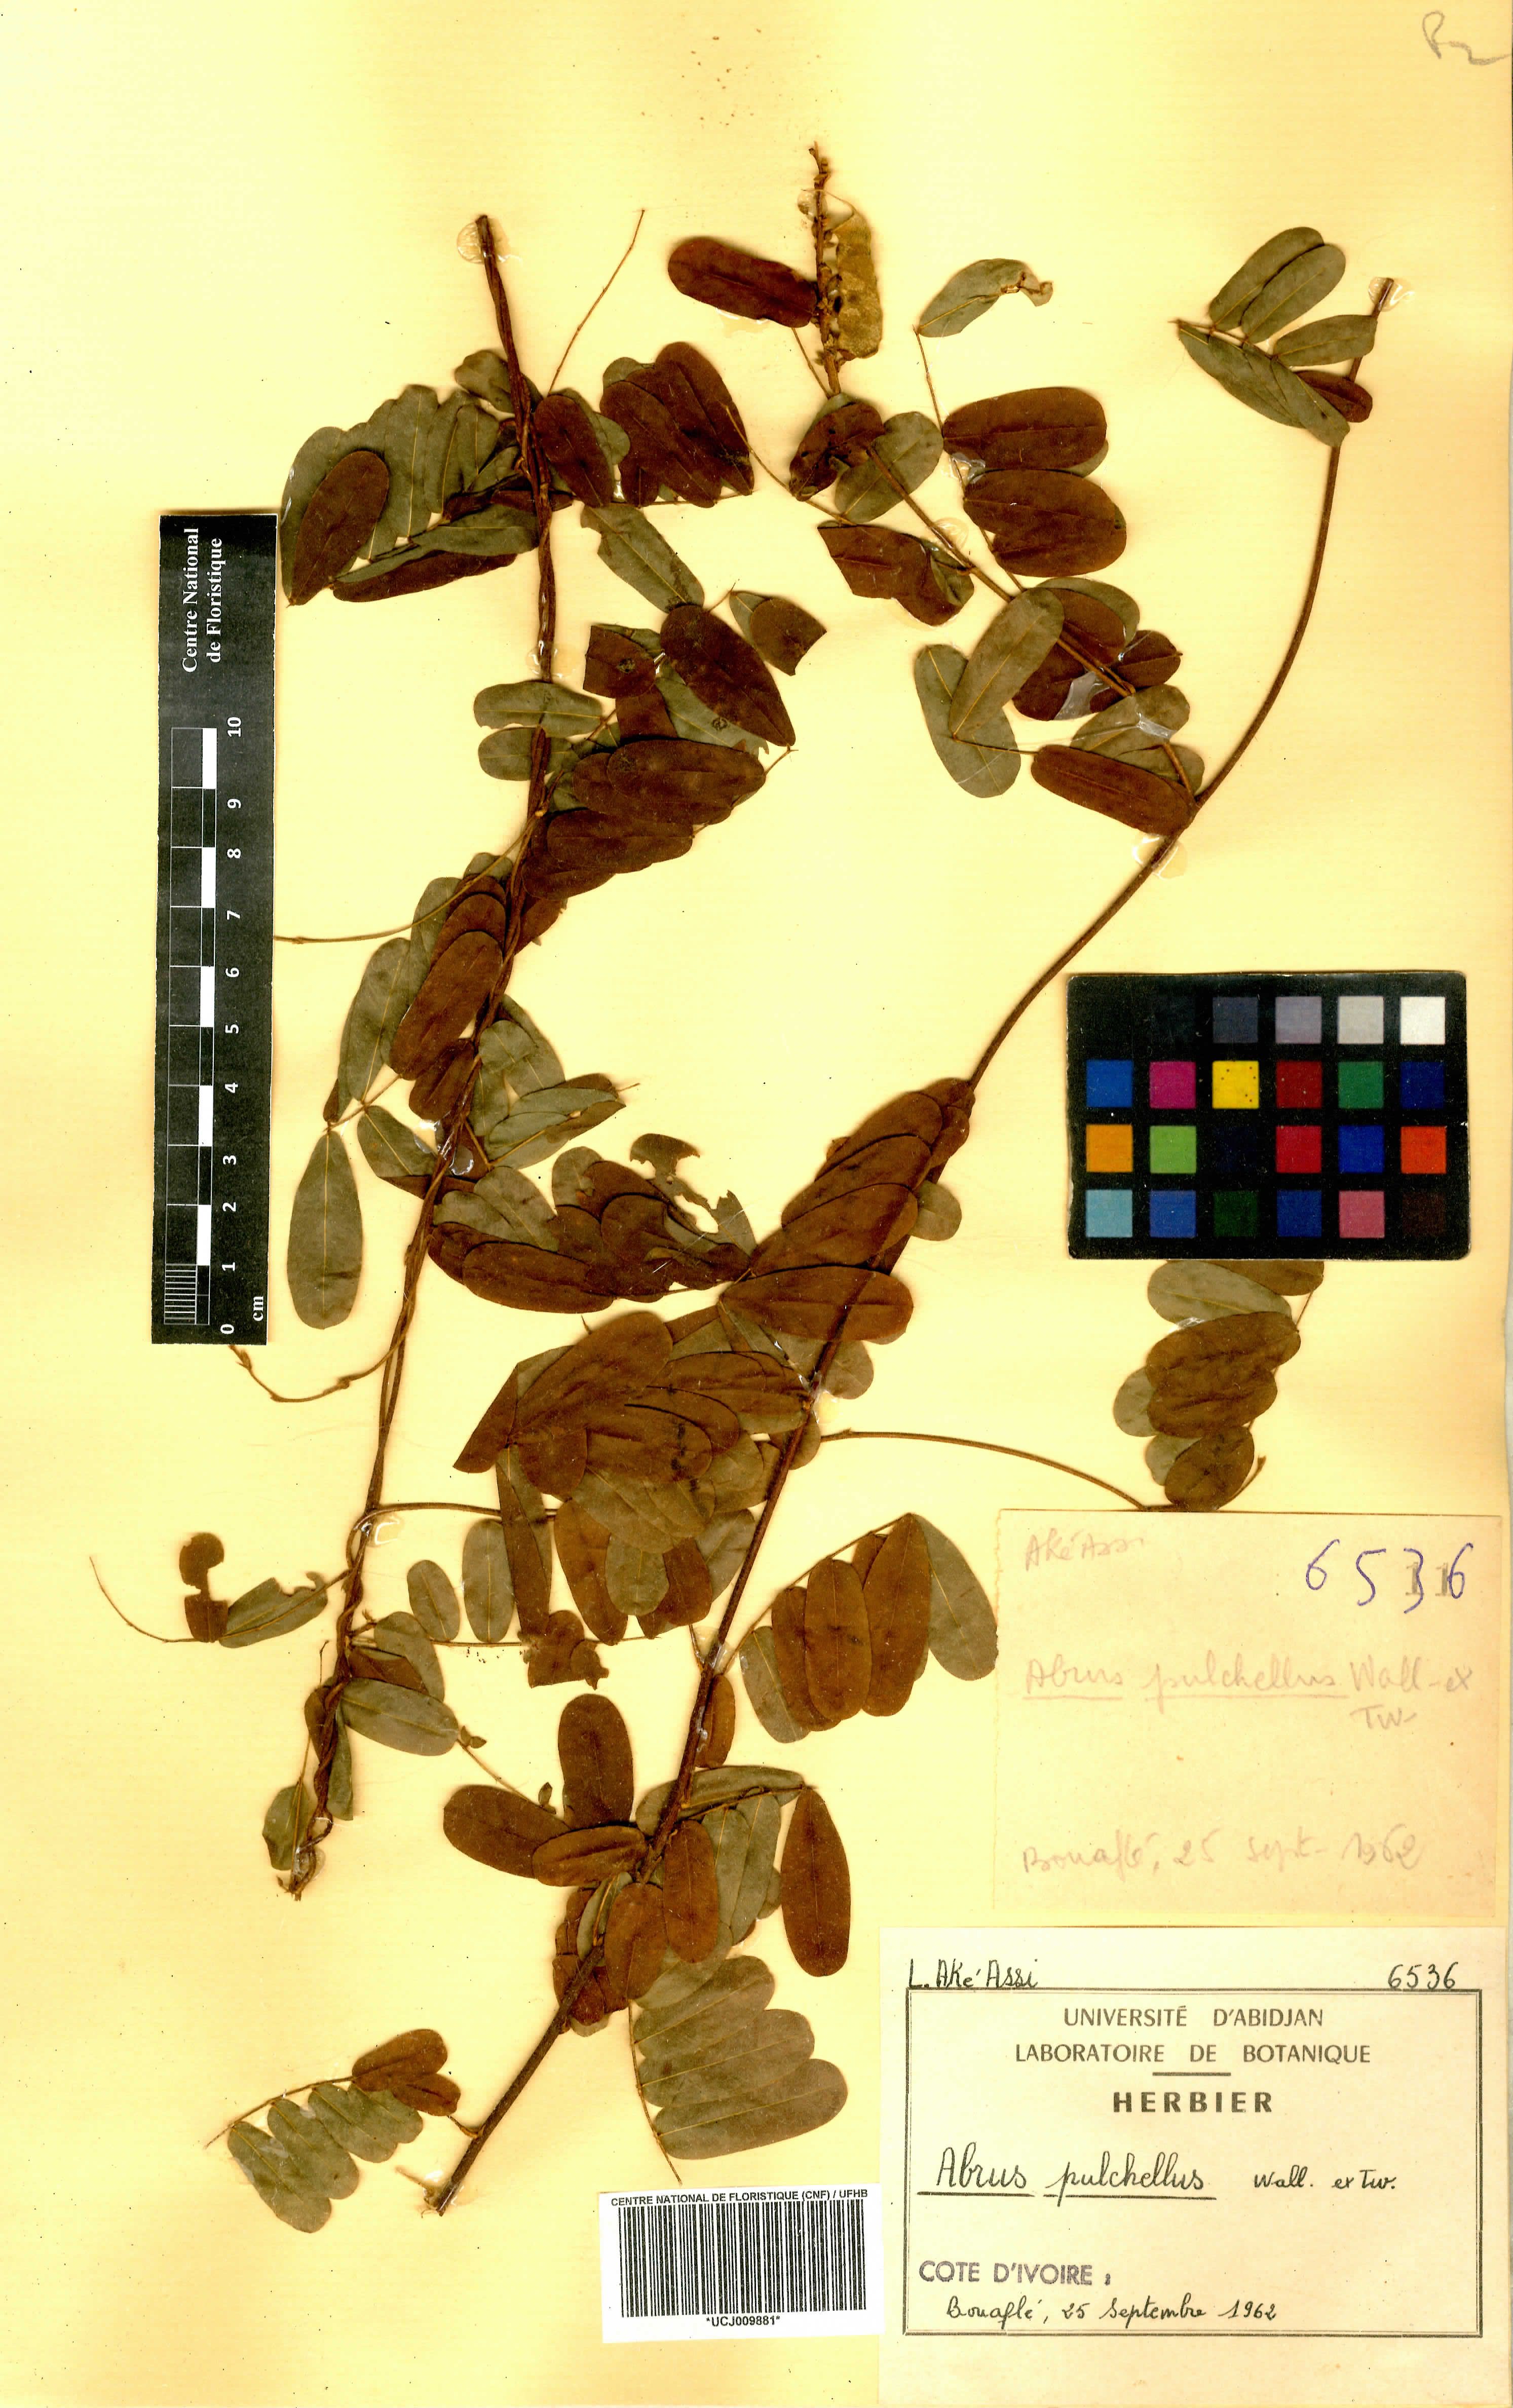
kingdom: Plantae
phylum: Tracheophyta
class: Magnoliopsida
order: Fabales
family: Fabaceae
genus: Abrus
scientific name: Abrus fruticulosus
